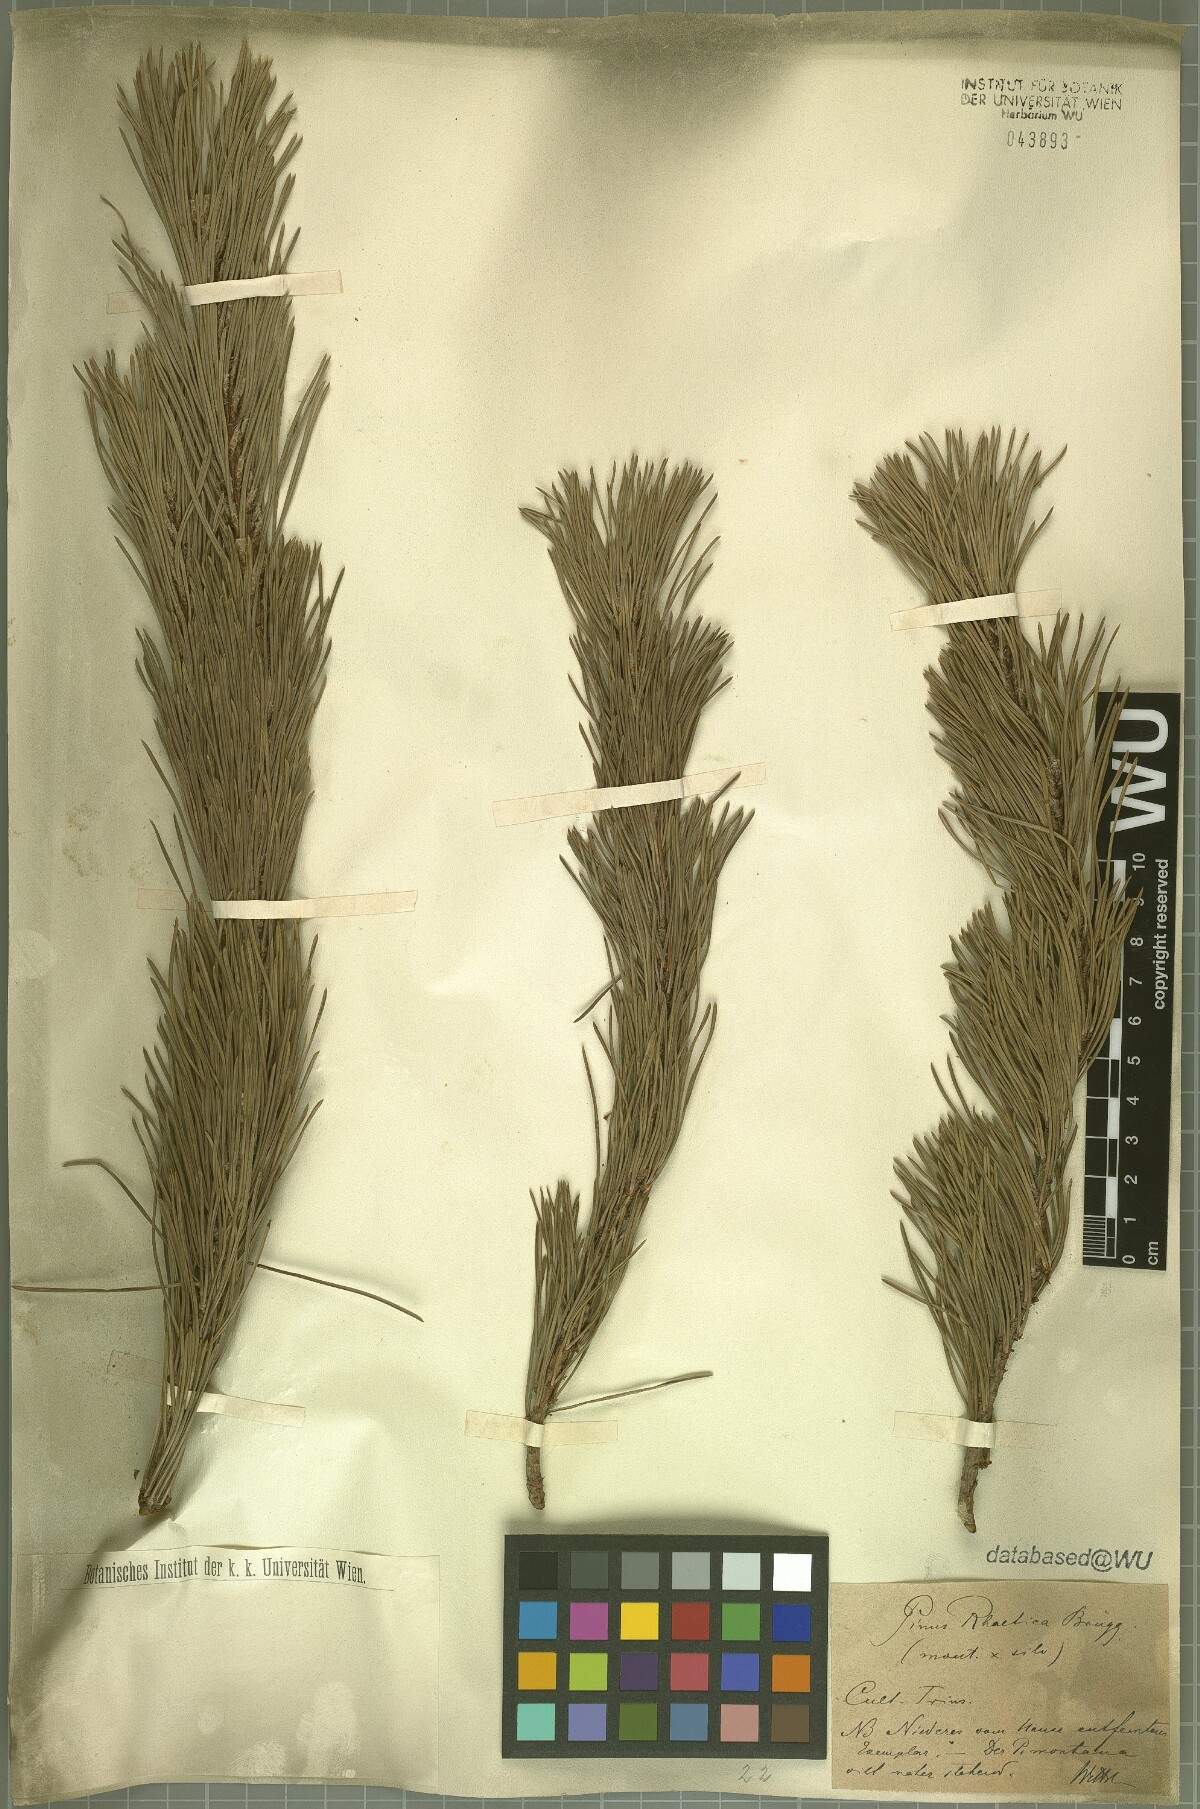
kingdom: Plantae
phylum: Tracheophyta
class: Pinopsida
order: Pinales
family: Pinaceae
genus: Pinus
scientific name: Pinus rhaetica
